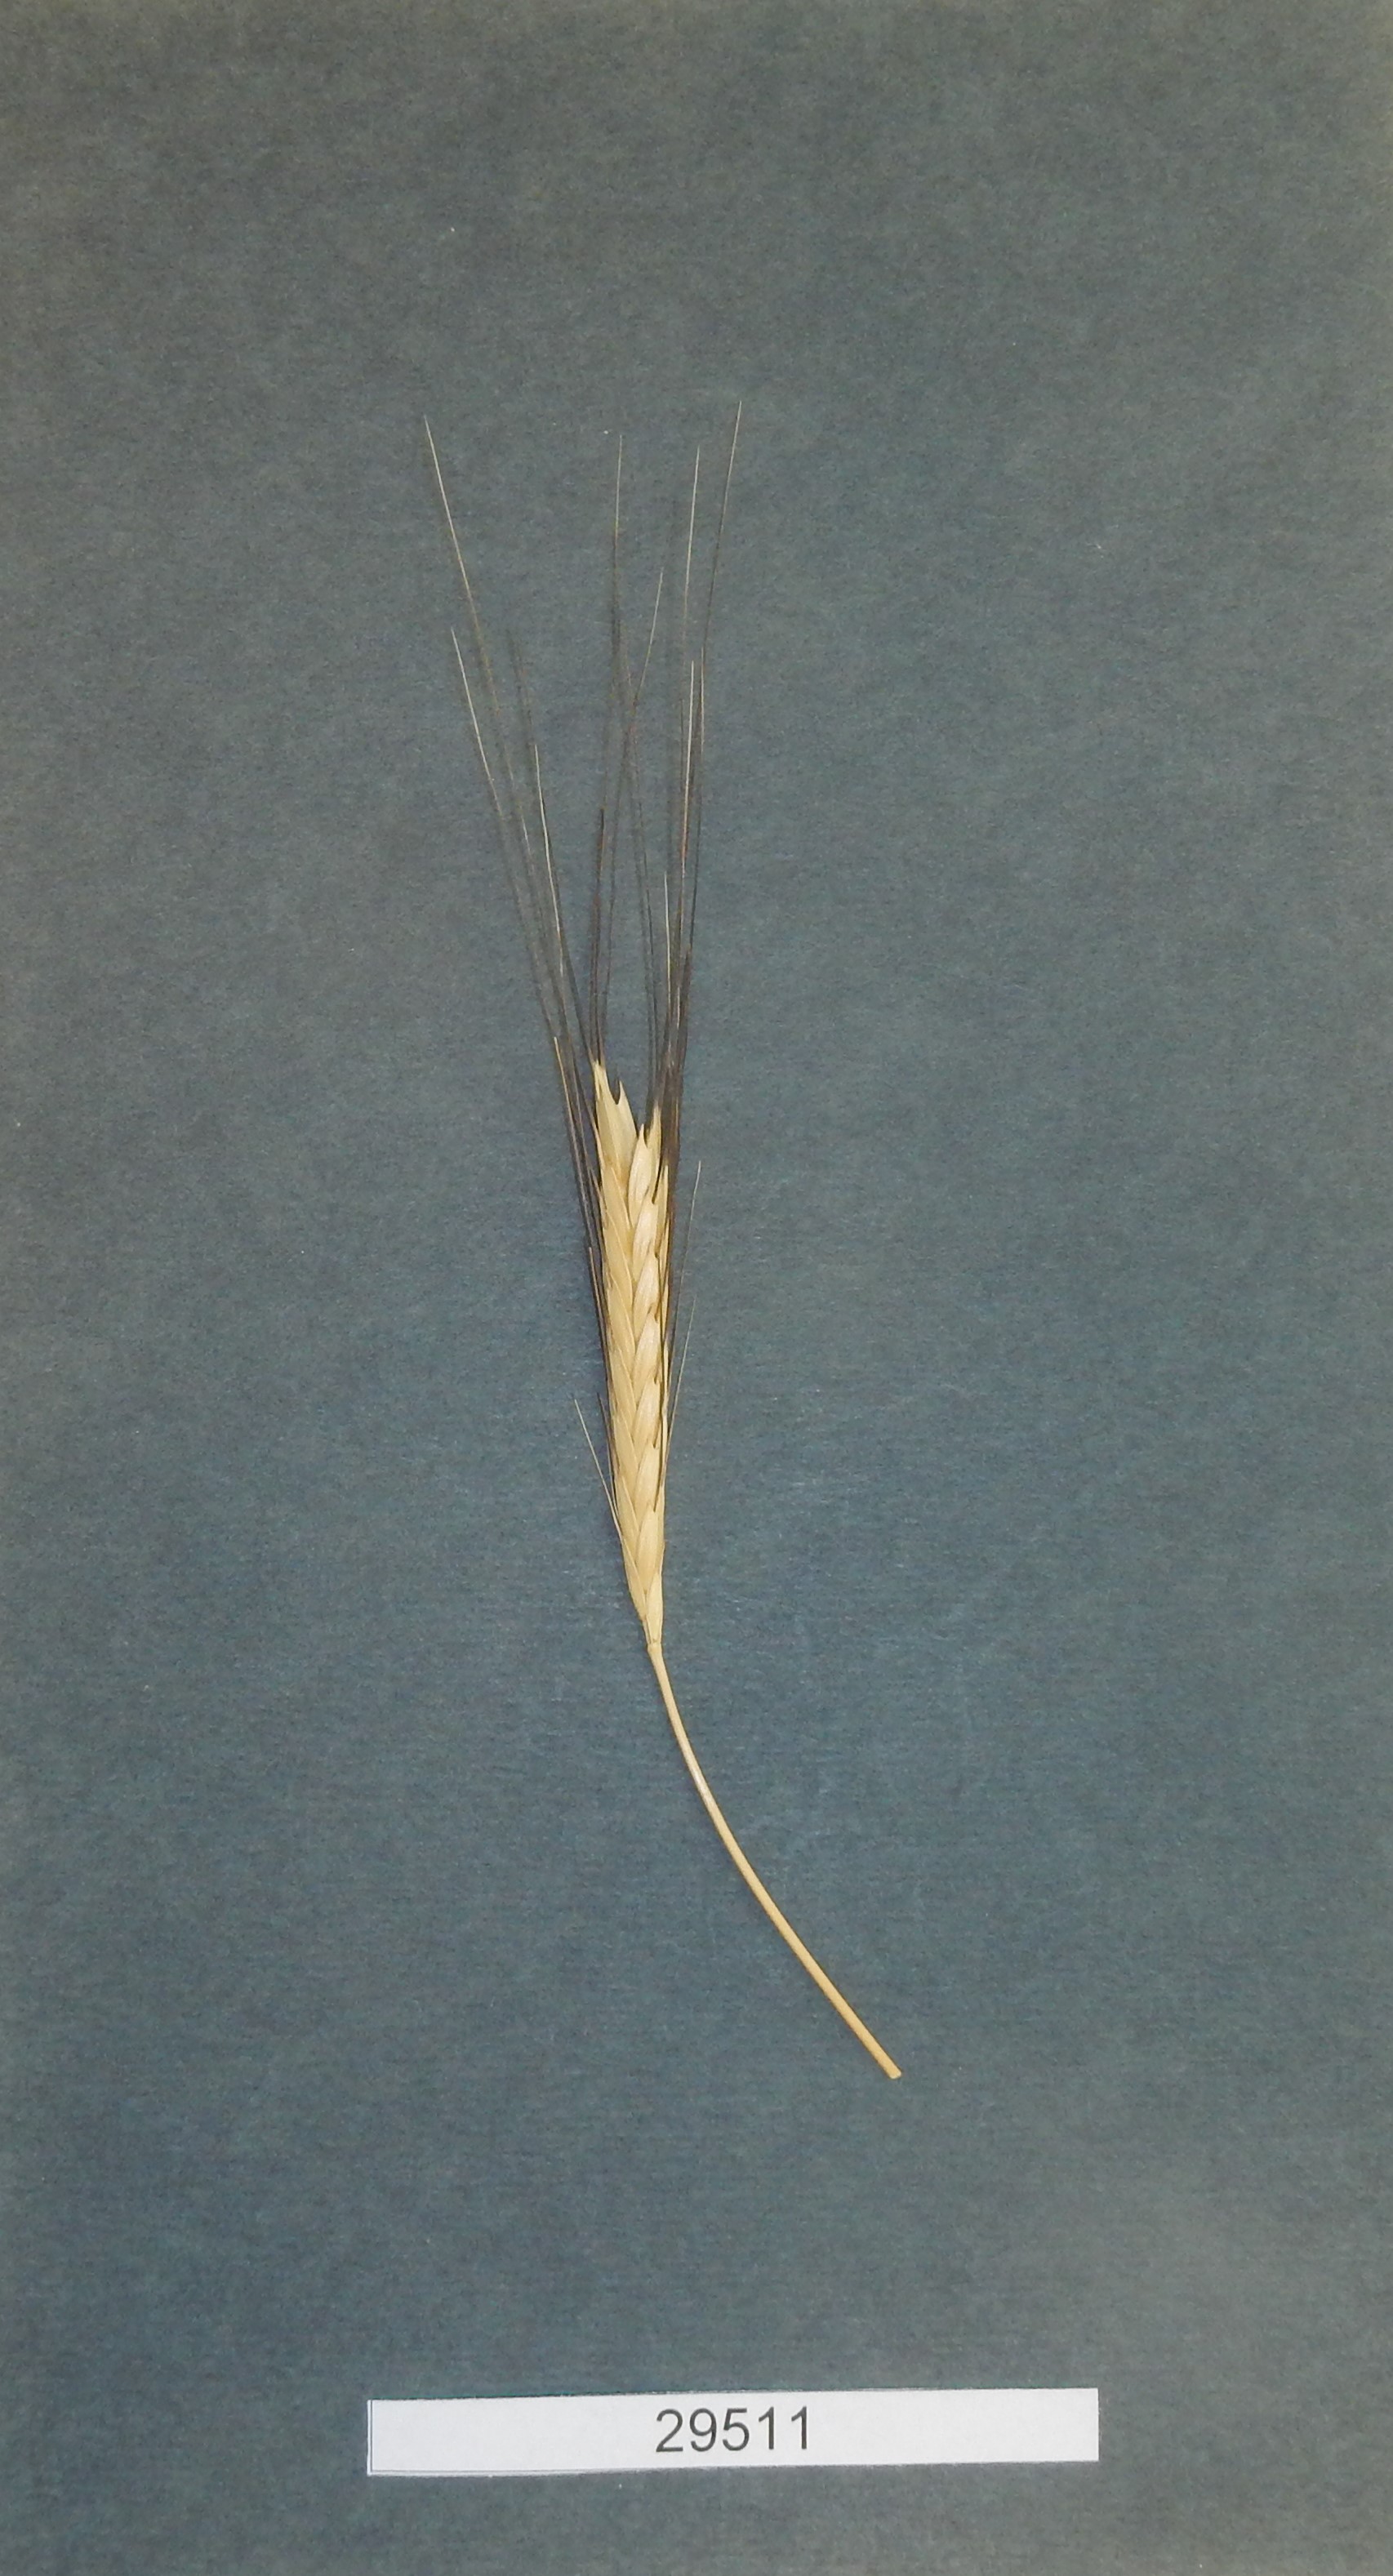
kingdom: Plantae
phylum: Tracheophyta
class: Liliopsida
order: Poales
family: Poaceae
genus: Triticum
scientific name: Triticum urartu
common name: Red wild einkorn
